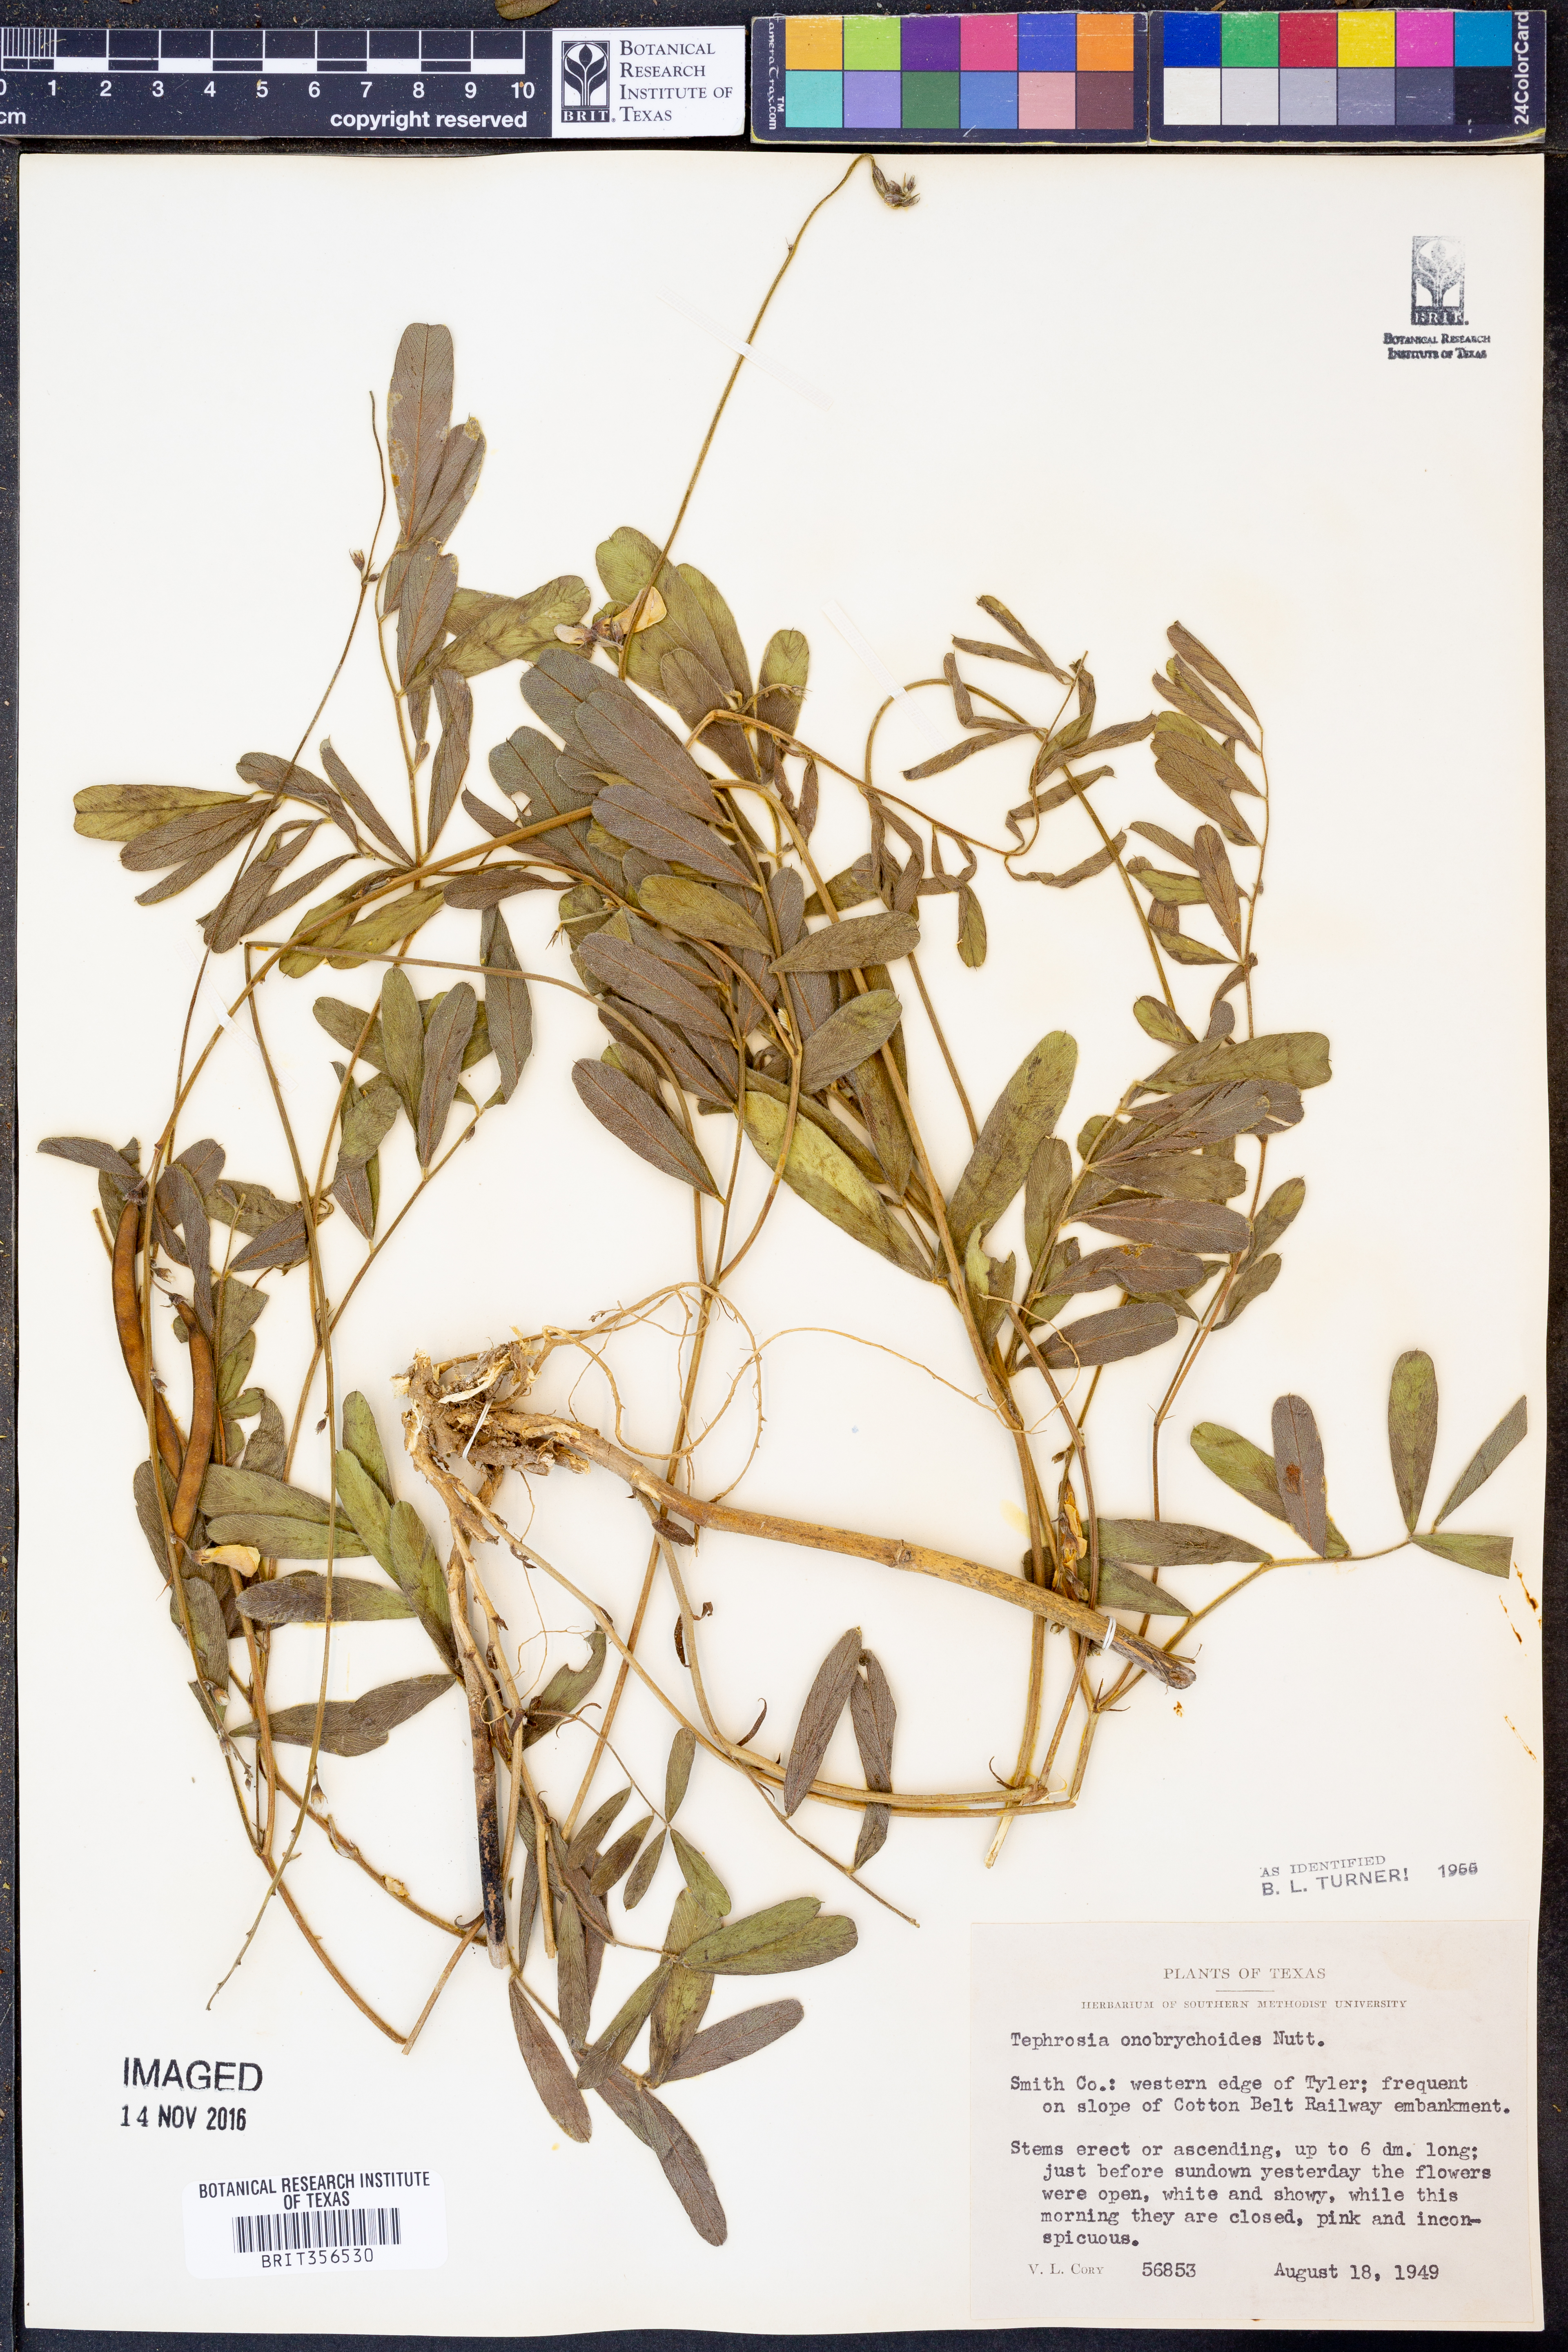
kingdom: Plantae
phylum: Tracheophyta
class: Magnoliopsida
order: Fabales
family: Fabaceae
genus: Tephrosia
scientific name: Tephrosia onobrychoides
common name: Multi-bloom hoary-pea
